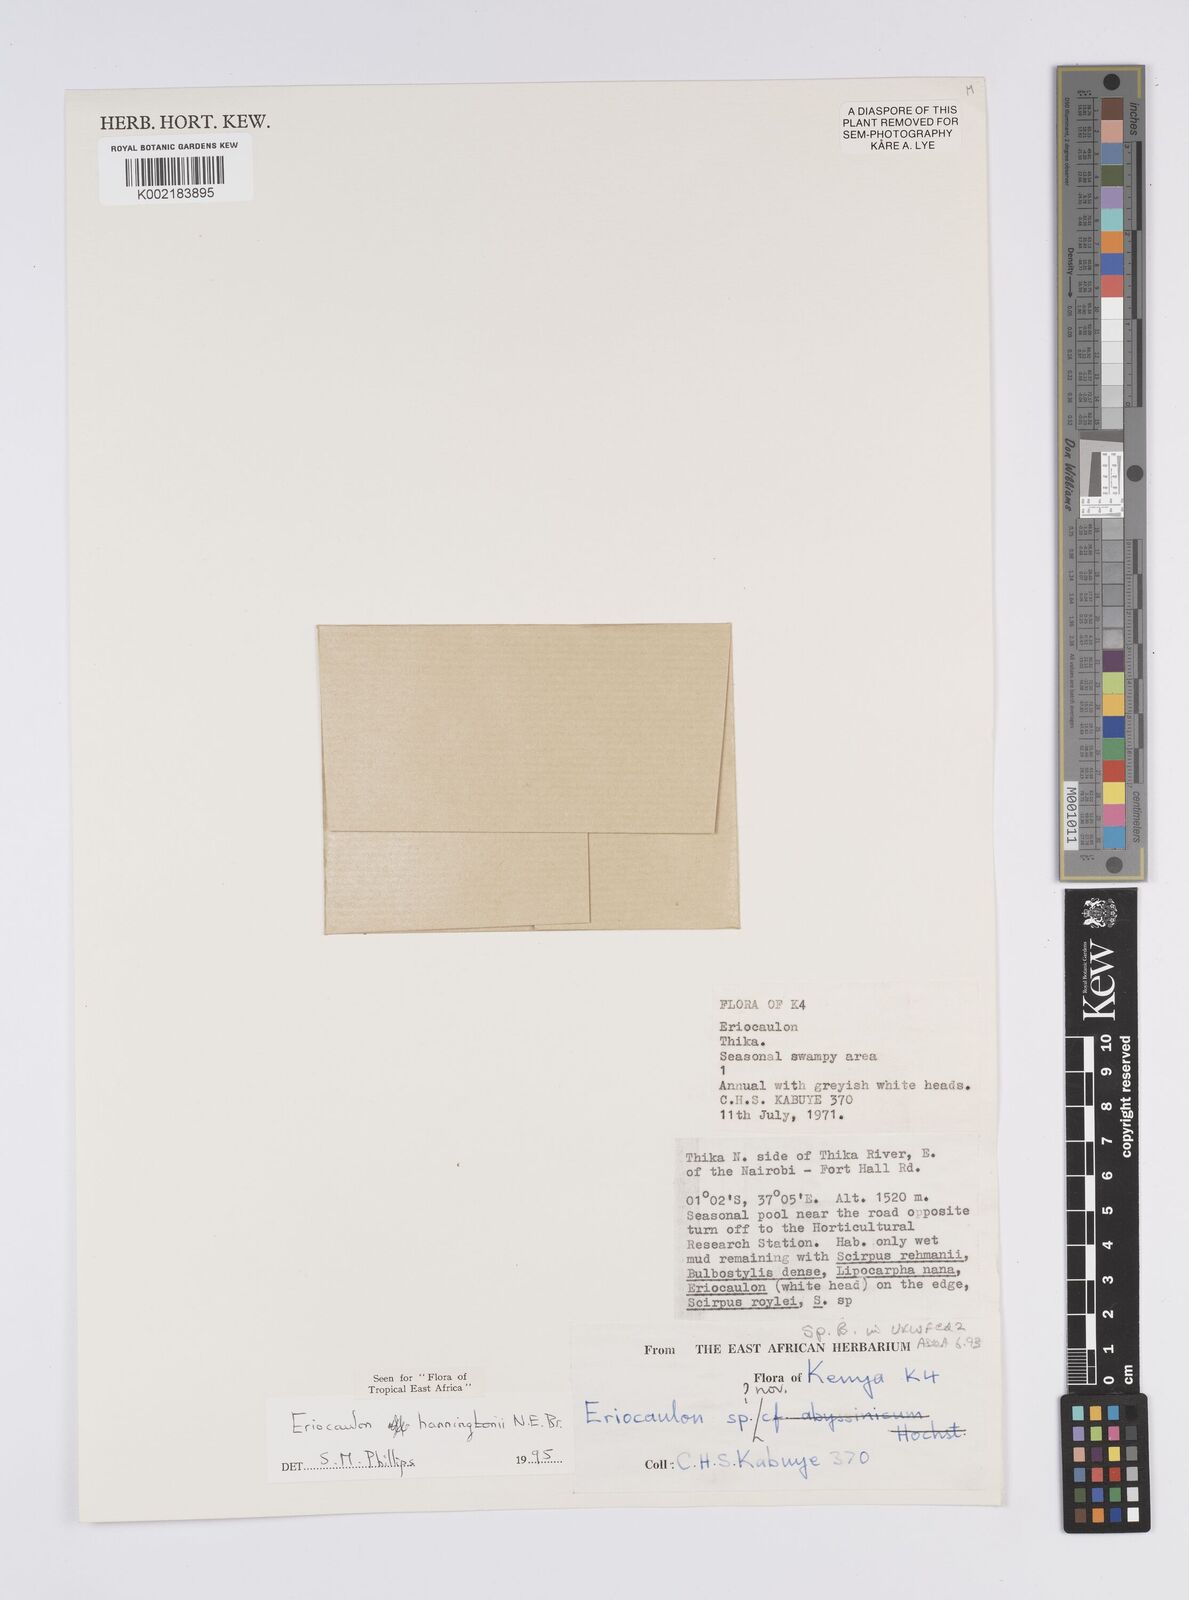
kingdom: Plantae
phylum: Tracheophyta
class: Liliopsida
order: Poales
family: Eriocaulaceae
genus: Eriocaulon
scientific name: Eriocaulon transvaalicum
